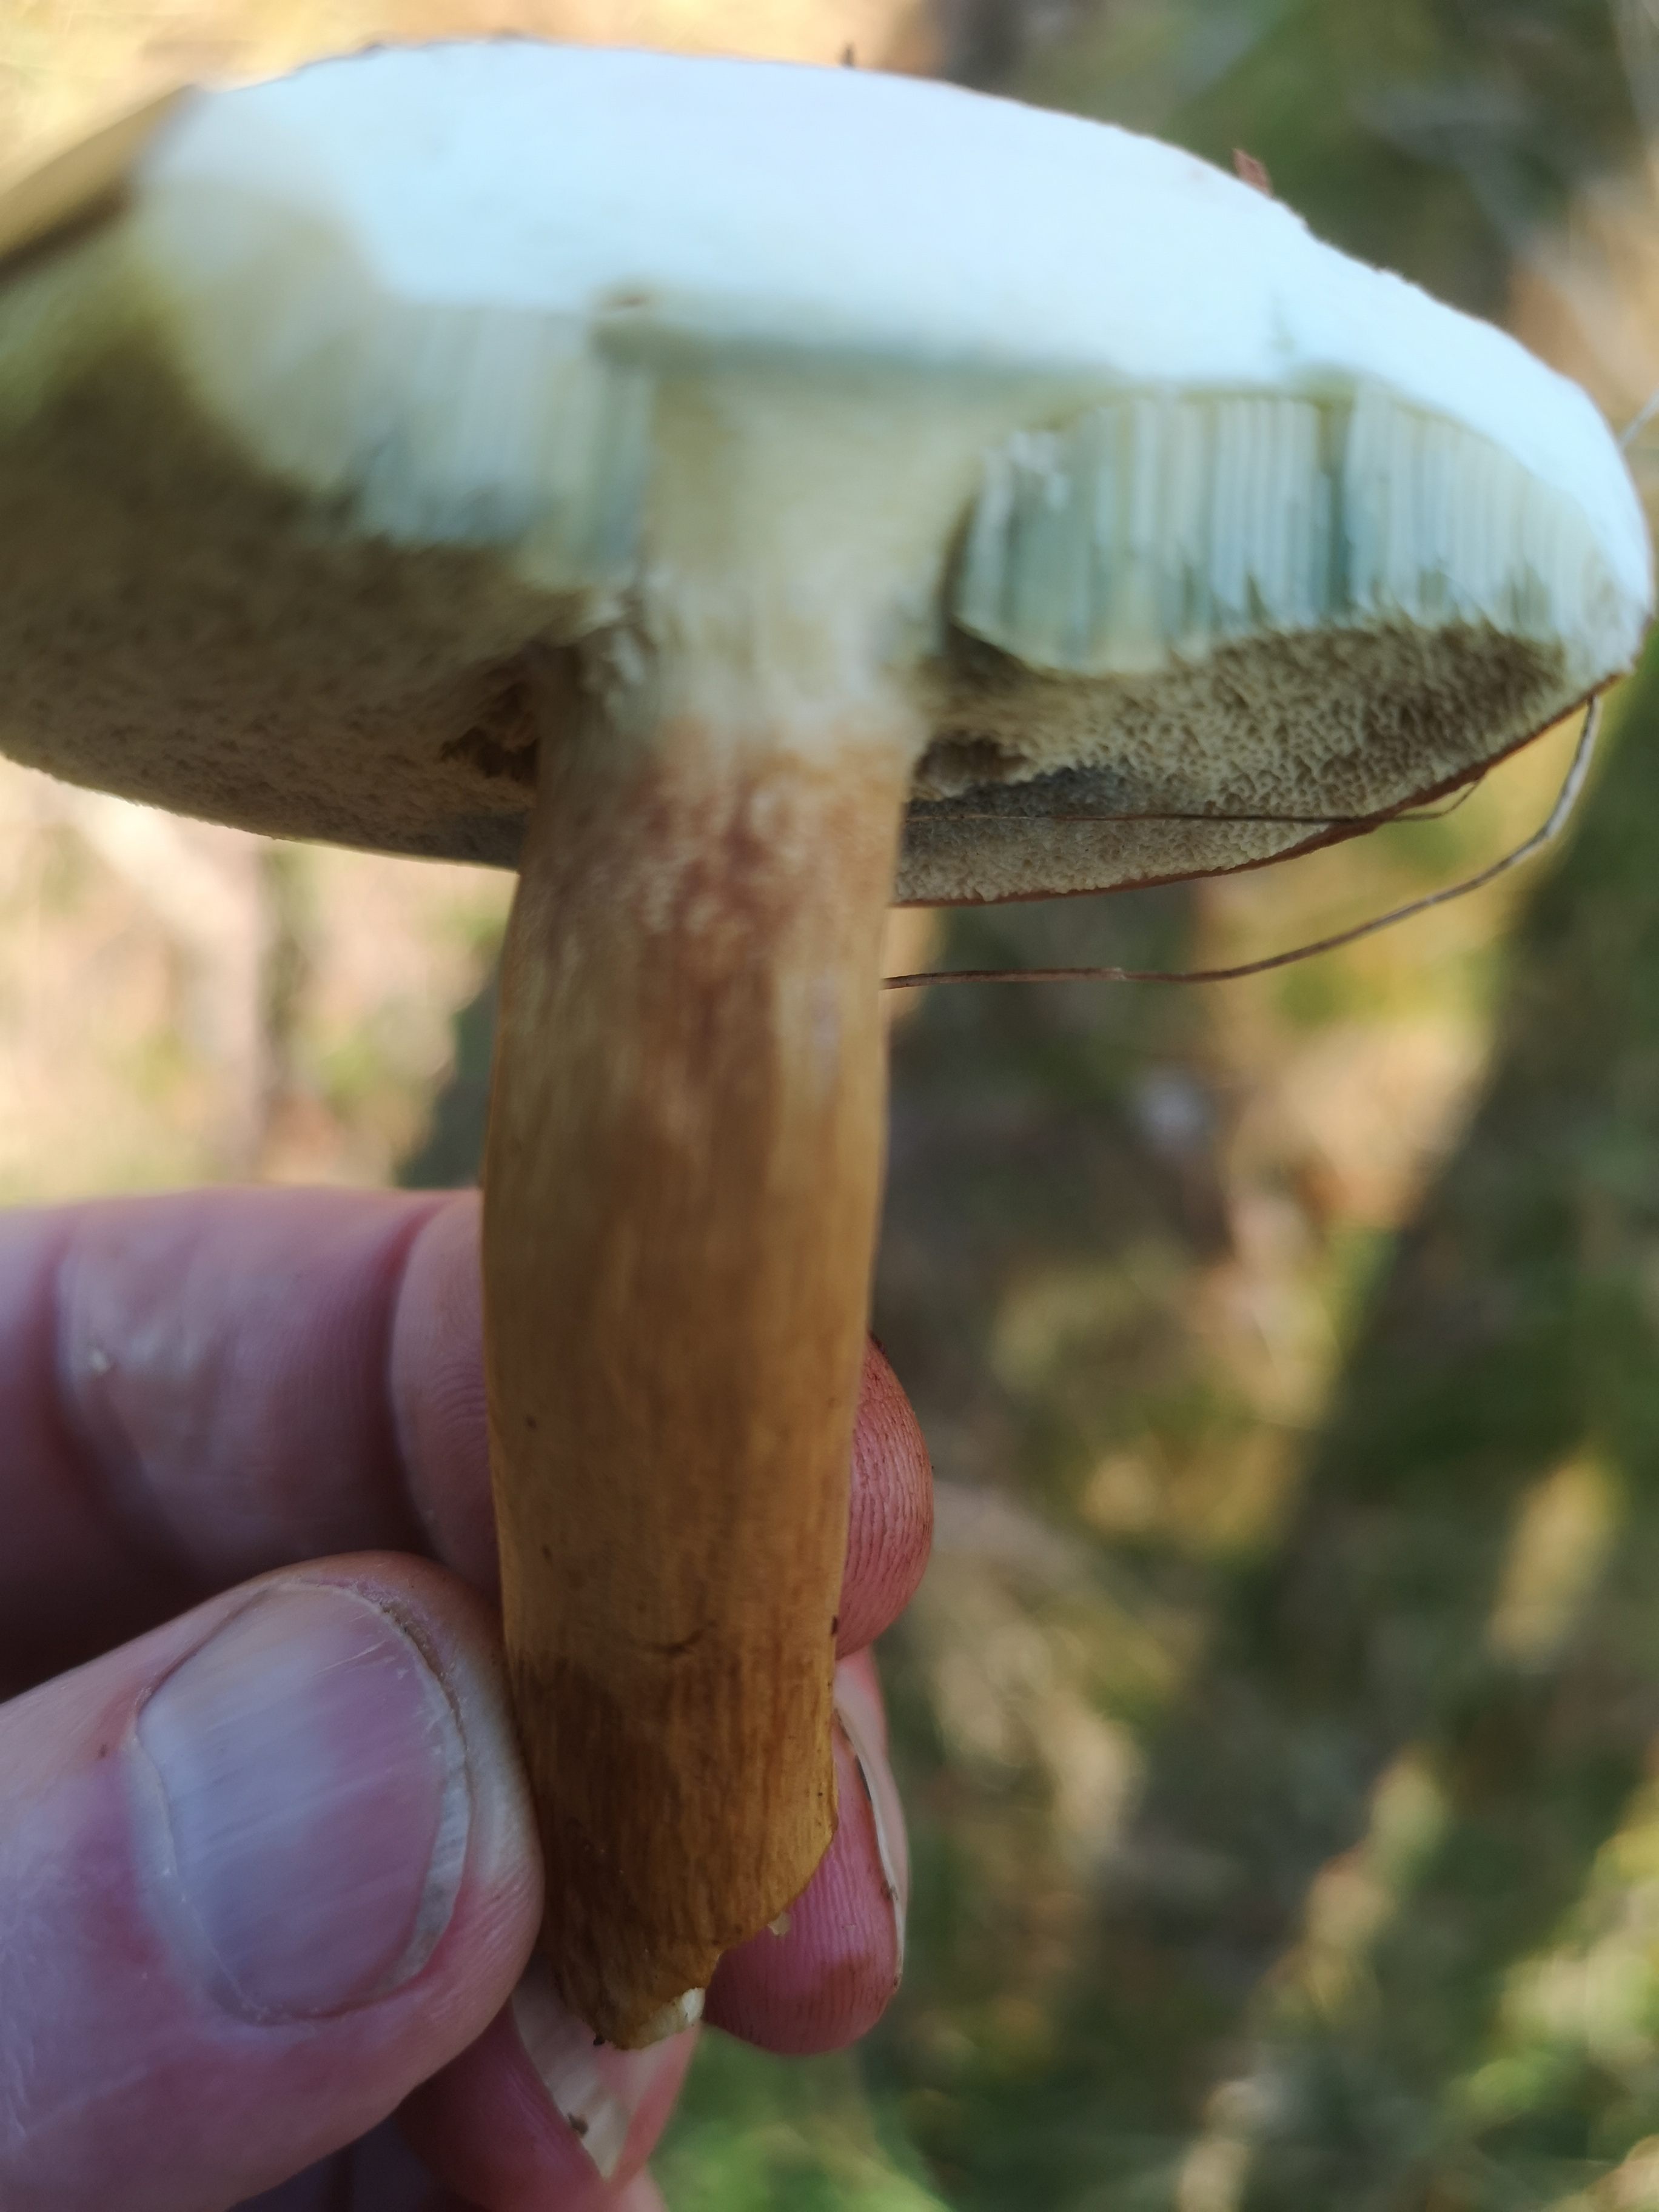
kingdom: Fungi
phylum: Basidiomycota
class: Agaricomycetes
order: Boletales
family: Boletaceae
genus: Imleria
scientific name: Imleria badia
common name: brunstokket rørhat
